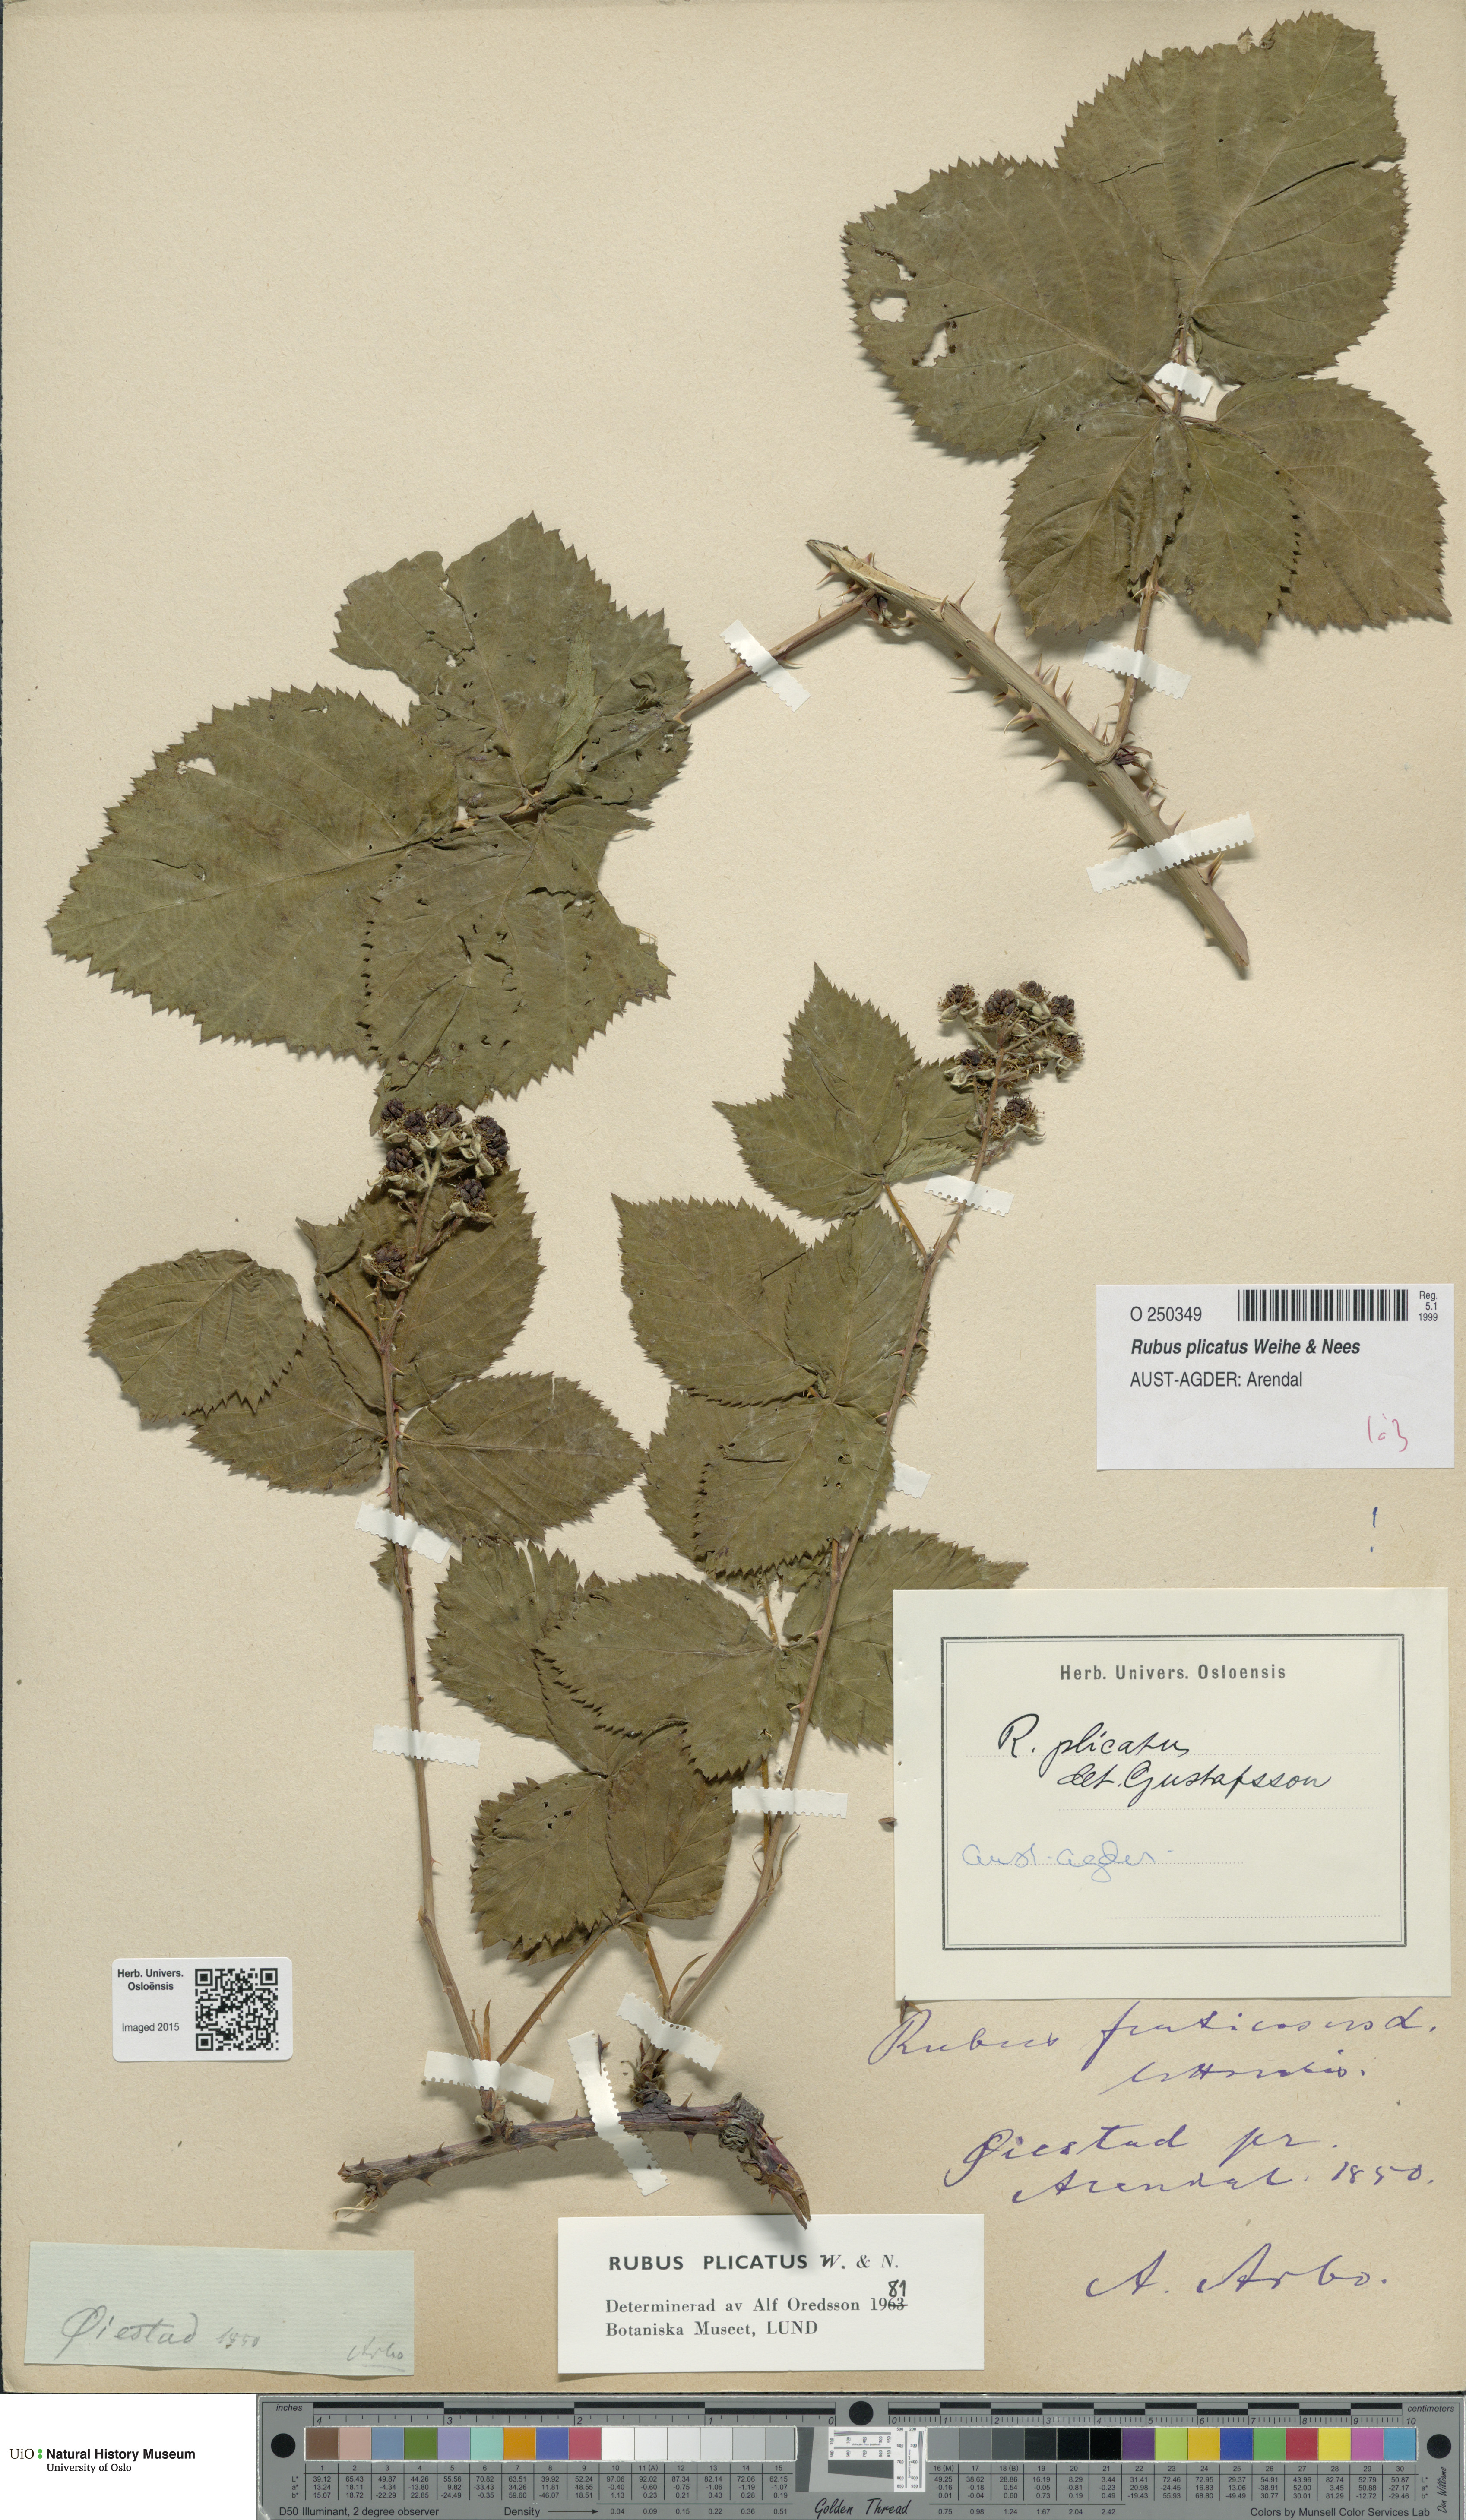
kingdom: Plantae
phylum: Tracheophyta
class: Magnoliopsida
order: Rosales
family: Rosaceae
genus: Rubus
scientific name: Rubus fruticosus
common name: Blackberry, bramble
